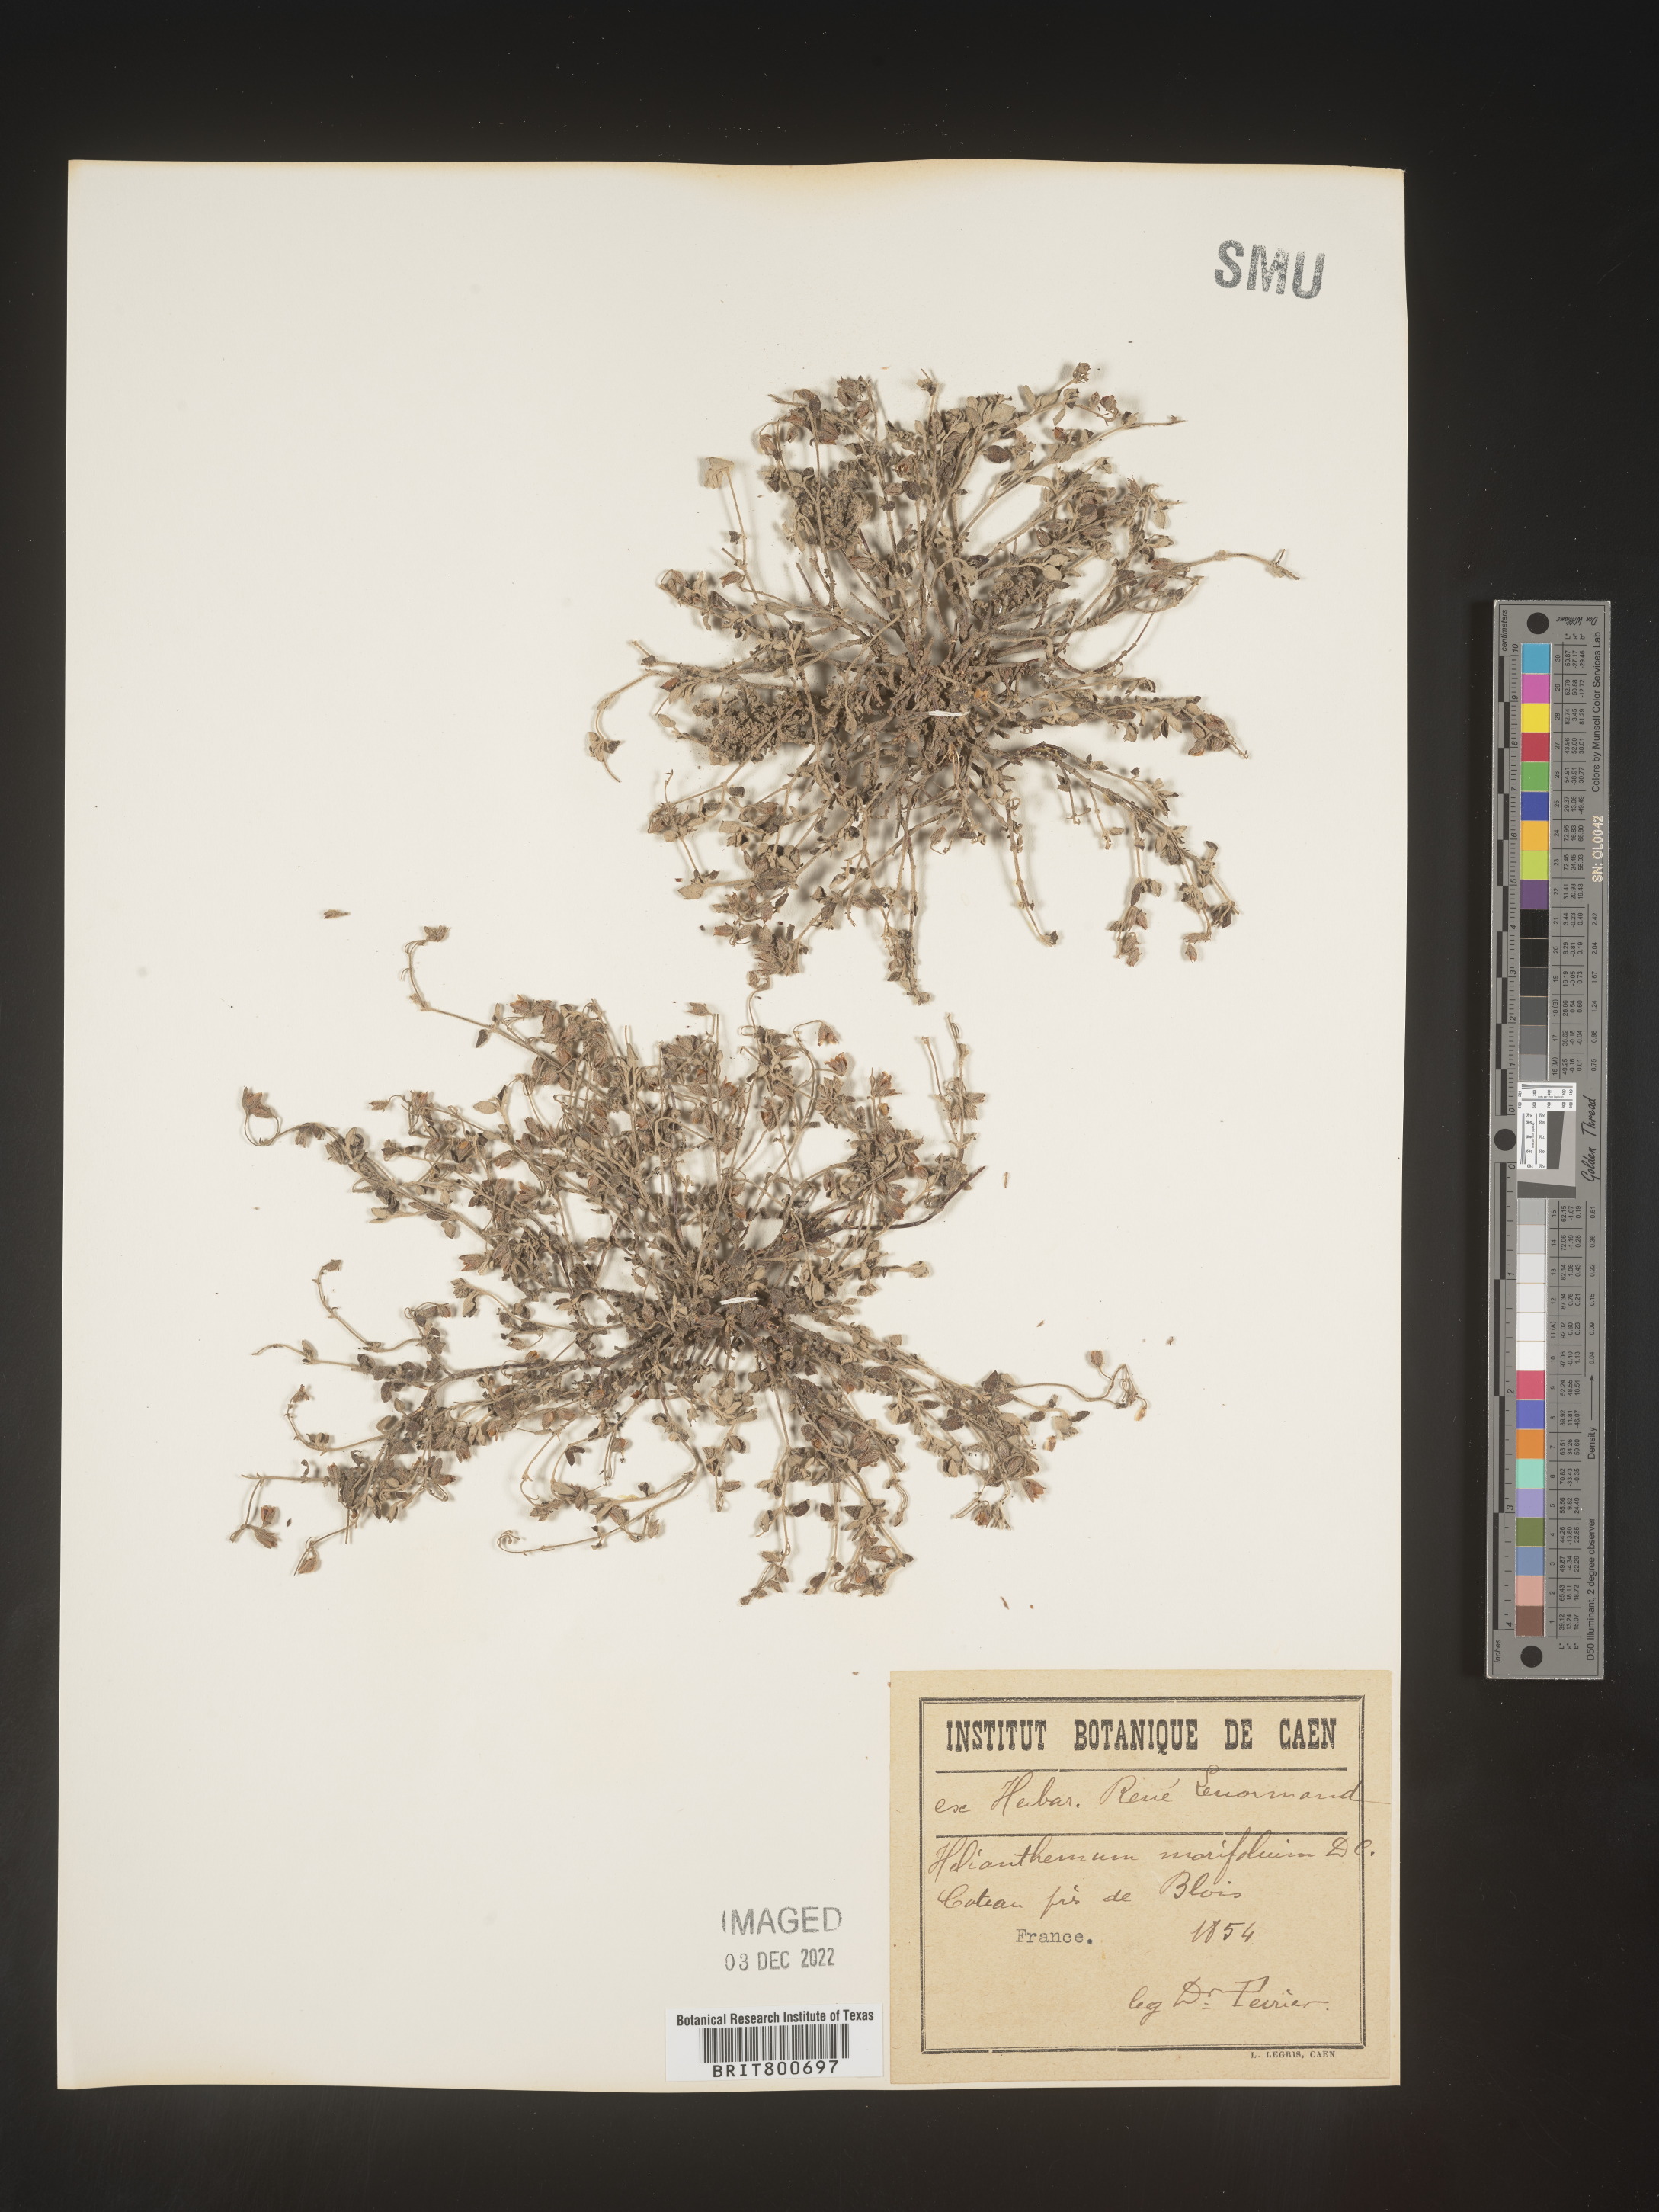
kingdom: Plantae
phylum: Tracheophyta
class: Magnoliopsida
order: Malvales
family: Cistaceae
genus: Helianthemum
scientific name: Helianthemum
